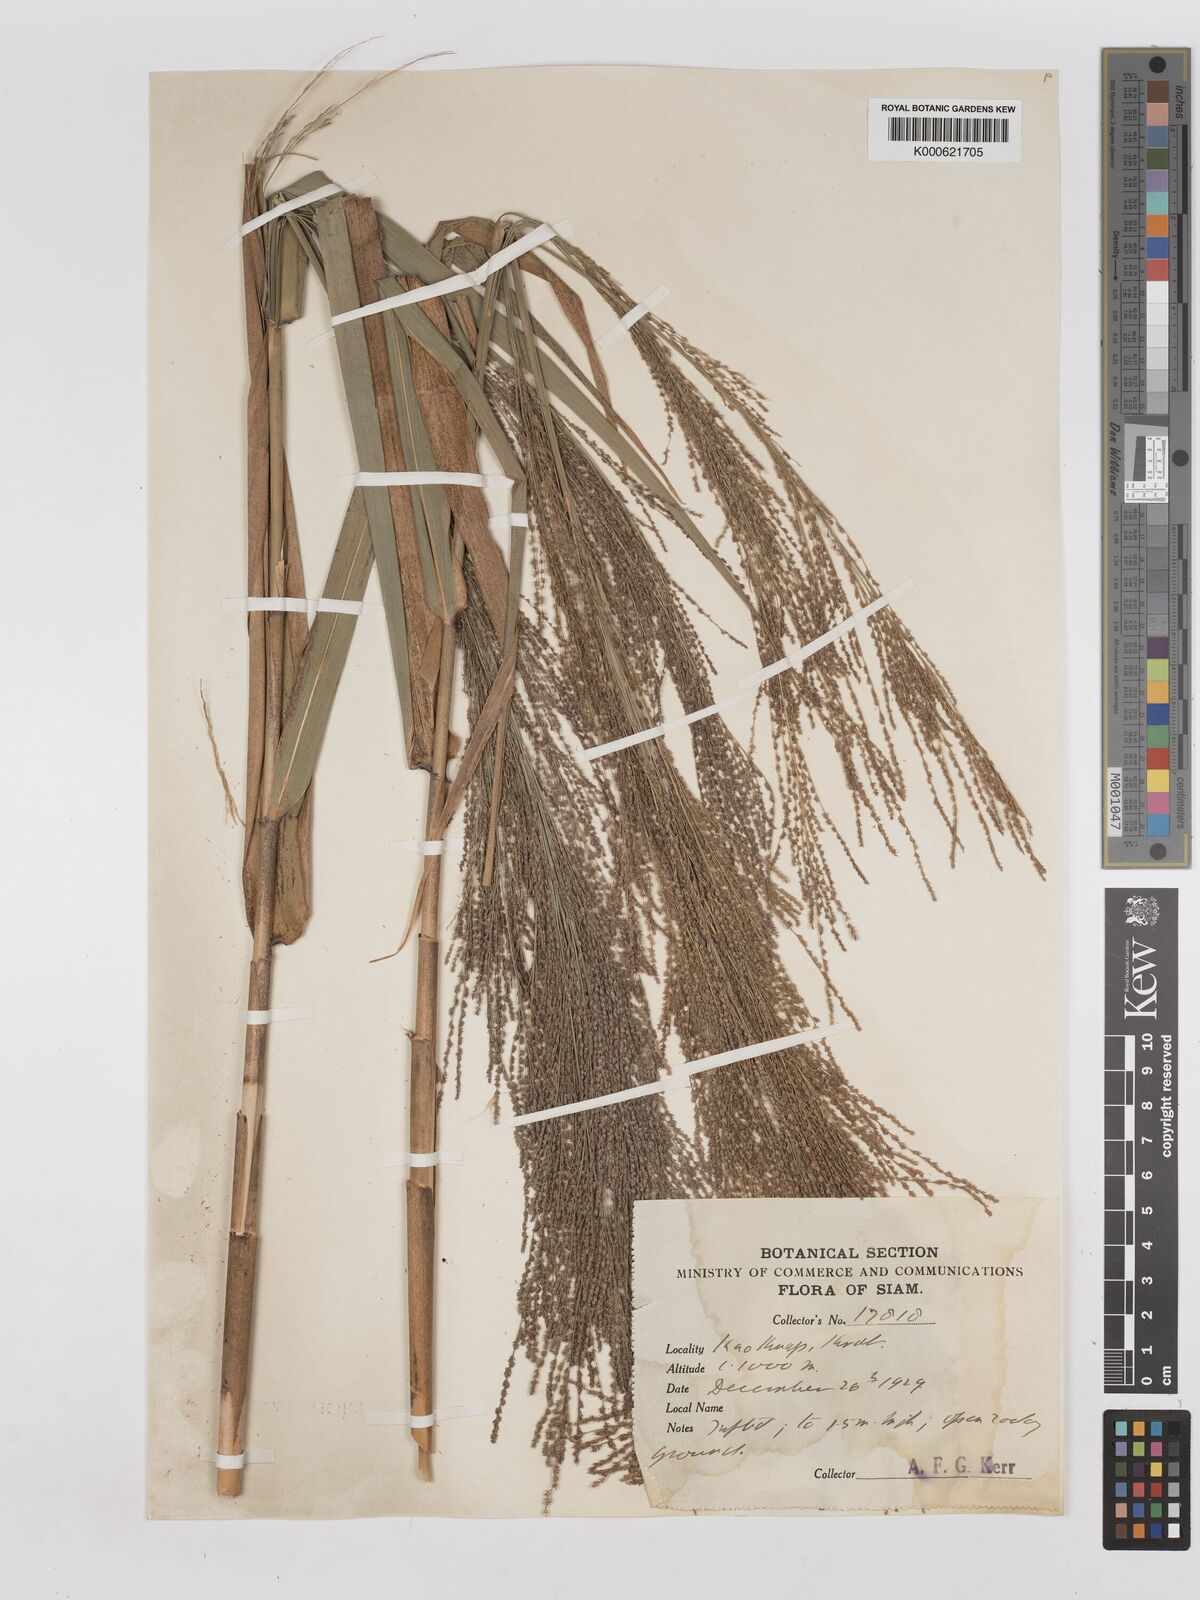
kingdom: Plantae
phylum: Tracheophyta
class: Liliopsida
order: Poales
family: Poaceae
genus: Thysanolaena
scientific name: Thysanolaena latifolia
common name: Tiger grass
